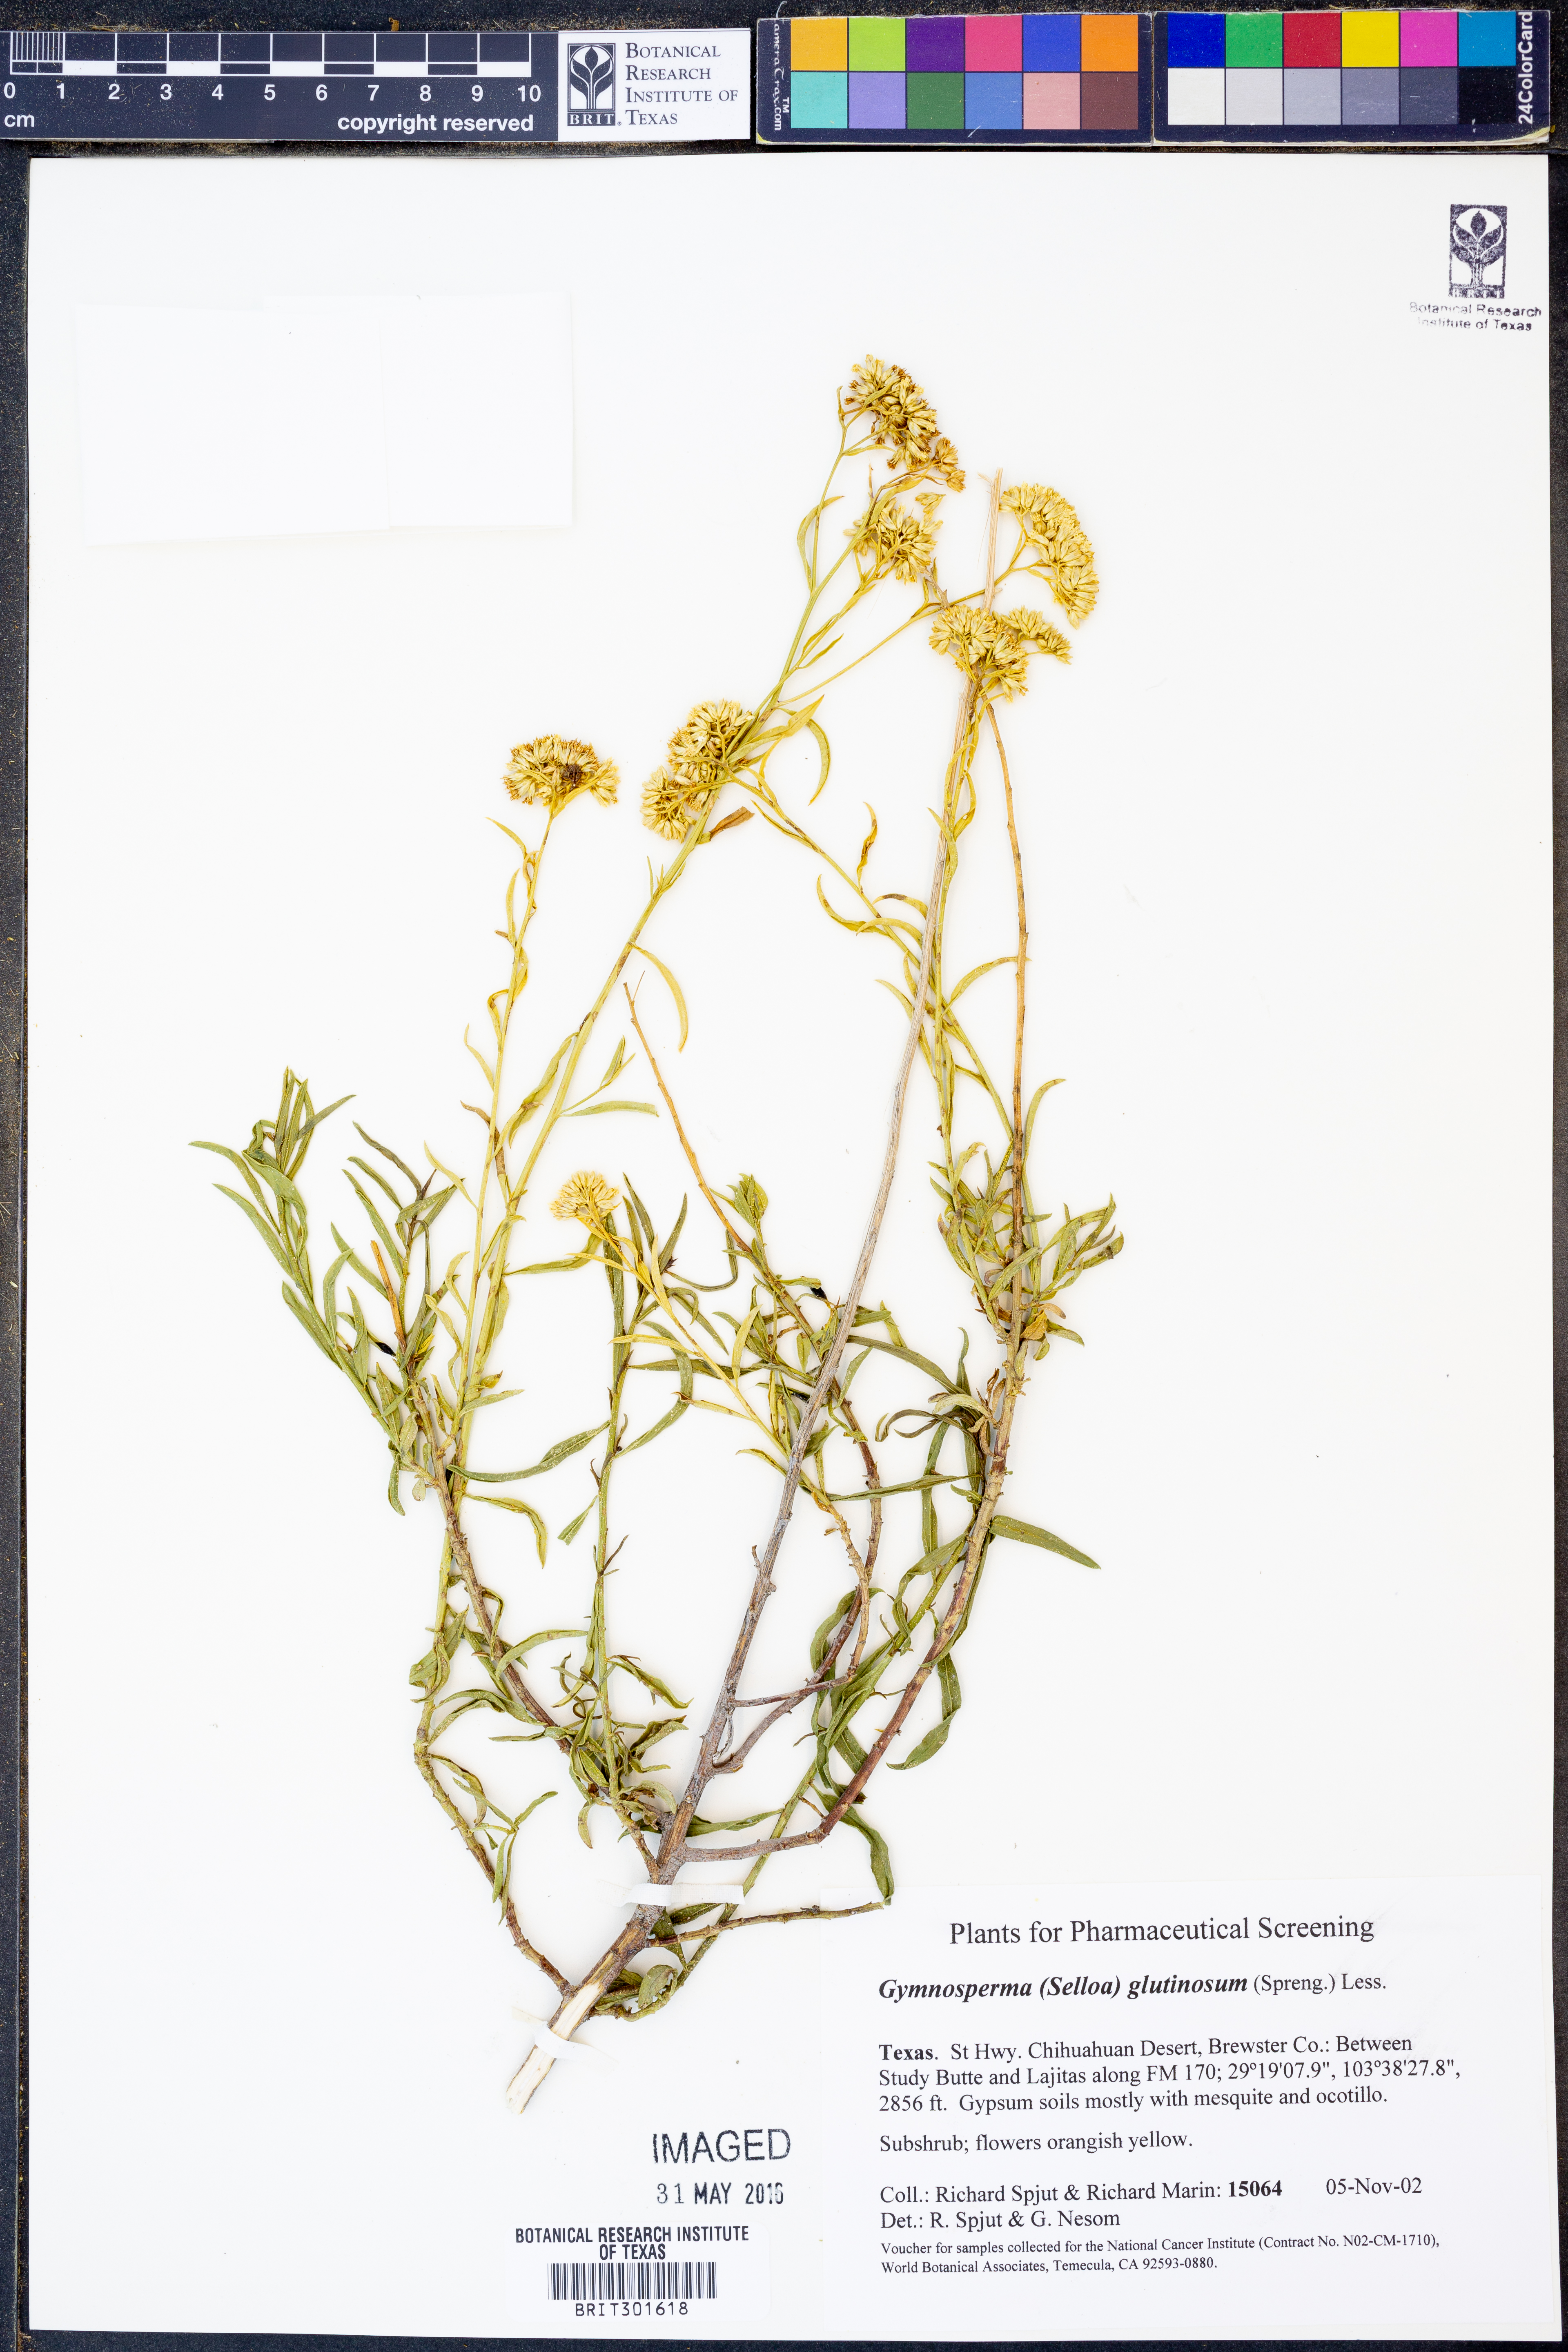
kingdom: Plantae
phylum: Tracheophyta
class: Magnoliopsida
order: Asterales
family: Asteraceae
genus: Gymnosperma
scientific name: Gymnosperma glutinosum
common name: Gumhead
